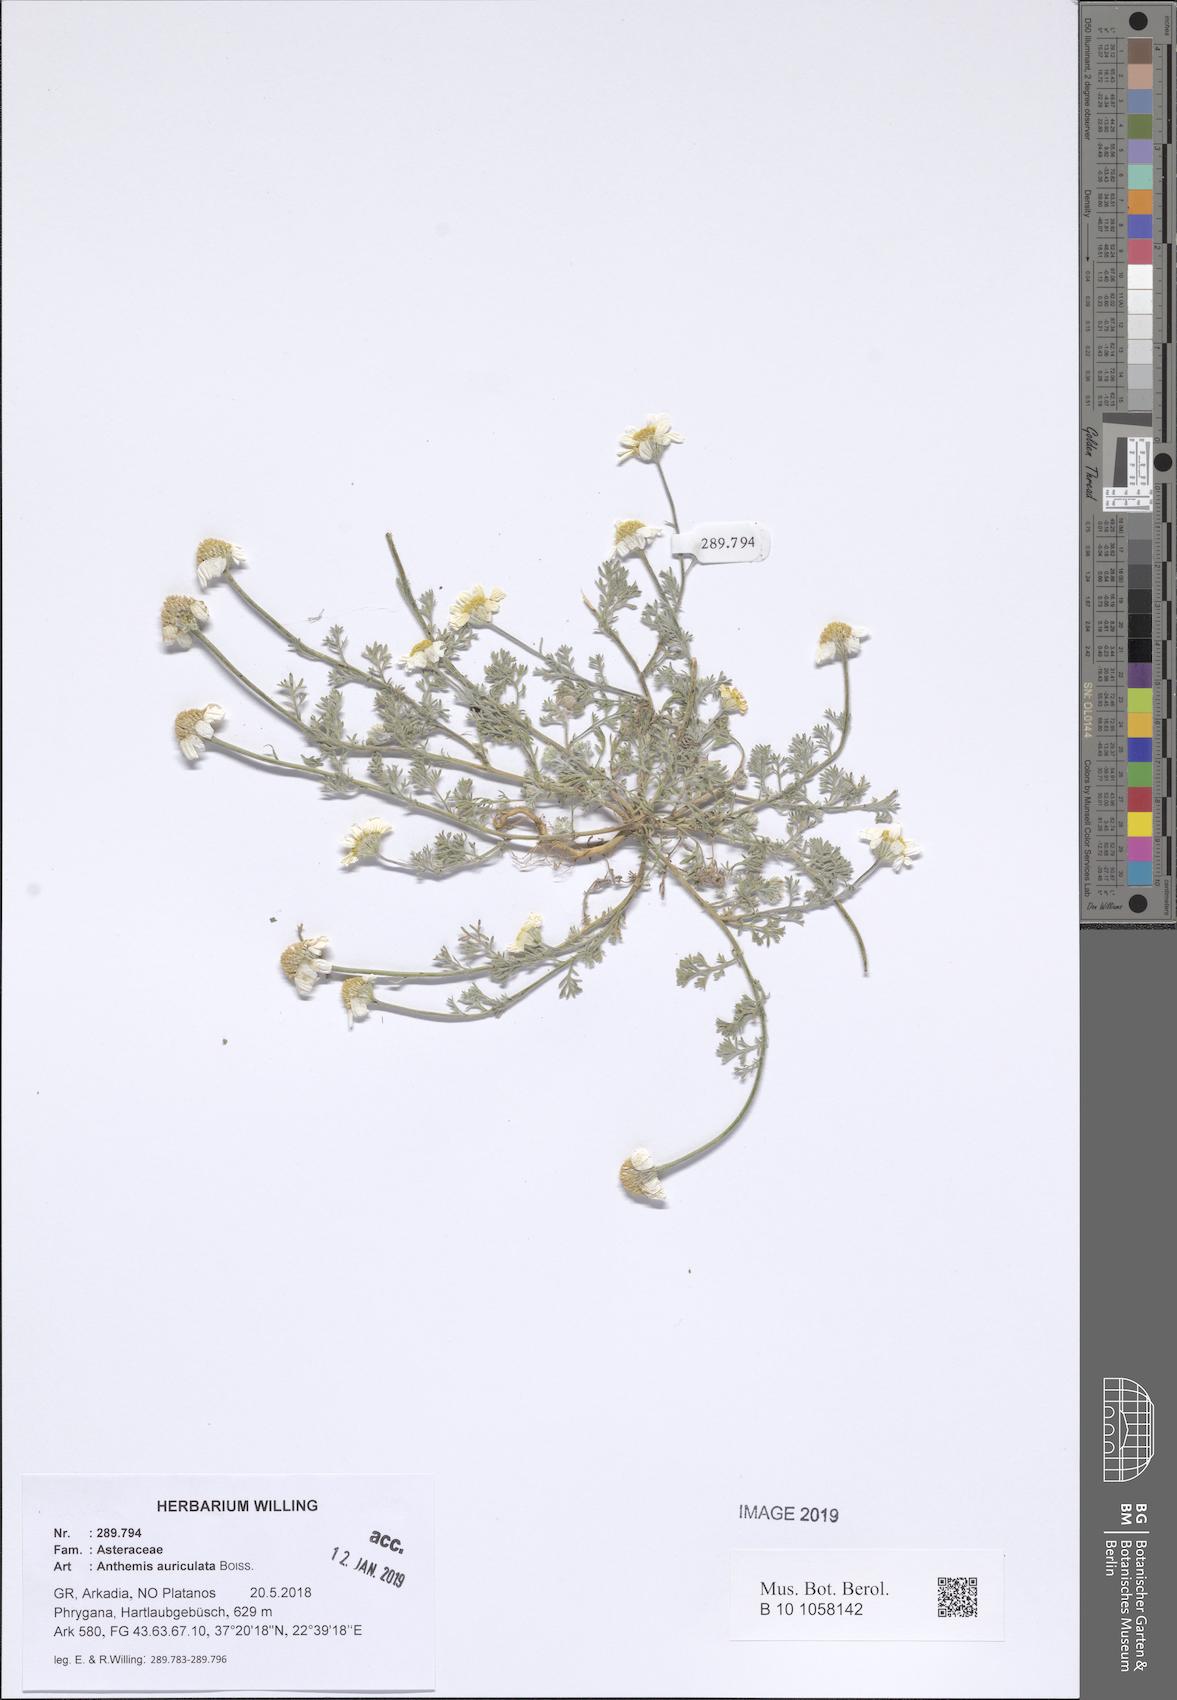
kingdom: Plantae
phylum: Tracheophyta
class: Magnoliopsida
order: Asterales
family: Asteraceae
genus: Anthemis
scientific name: Anthemis auriculata
